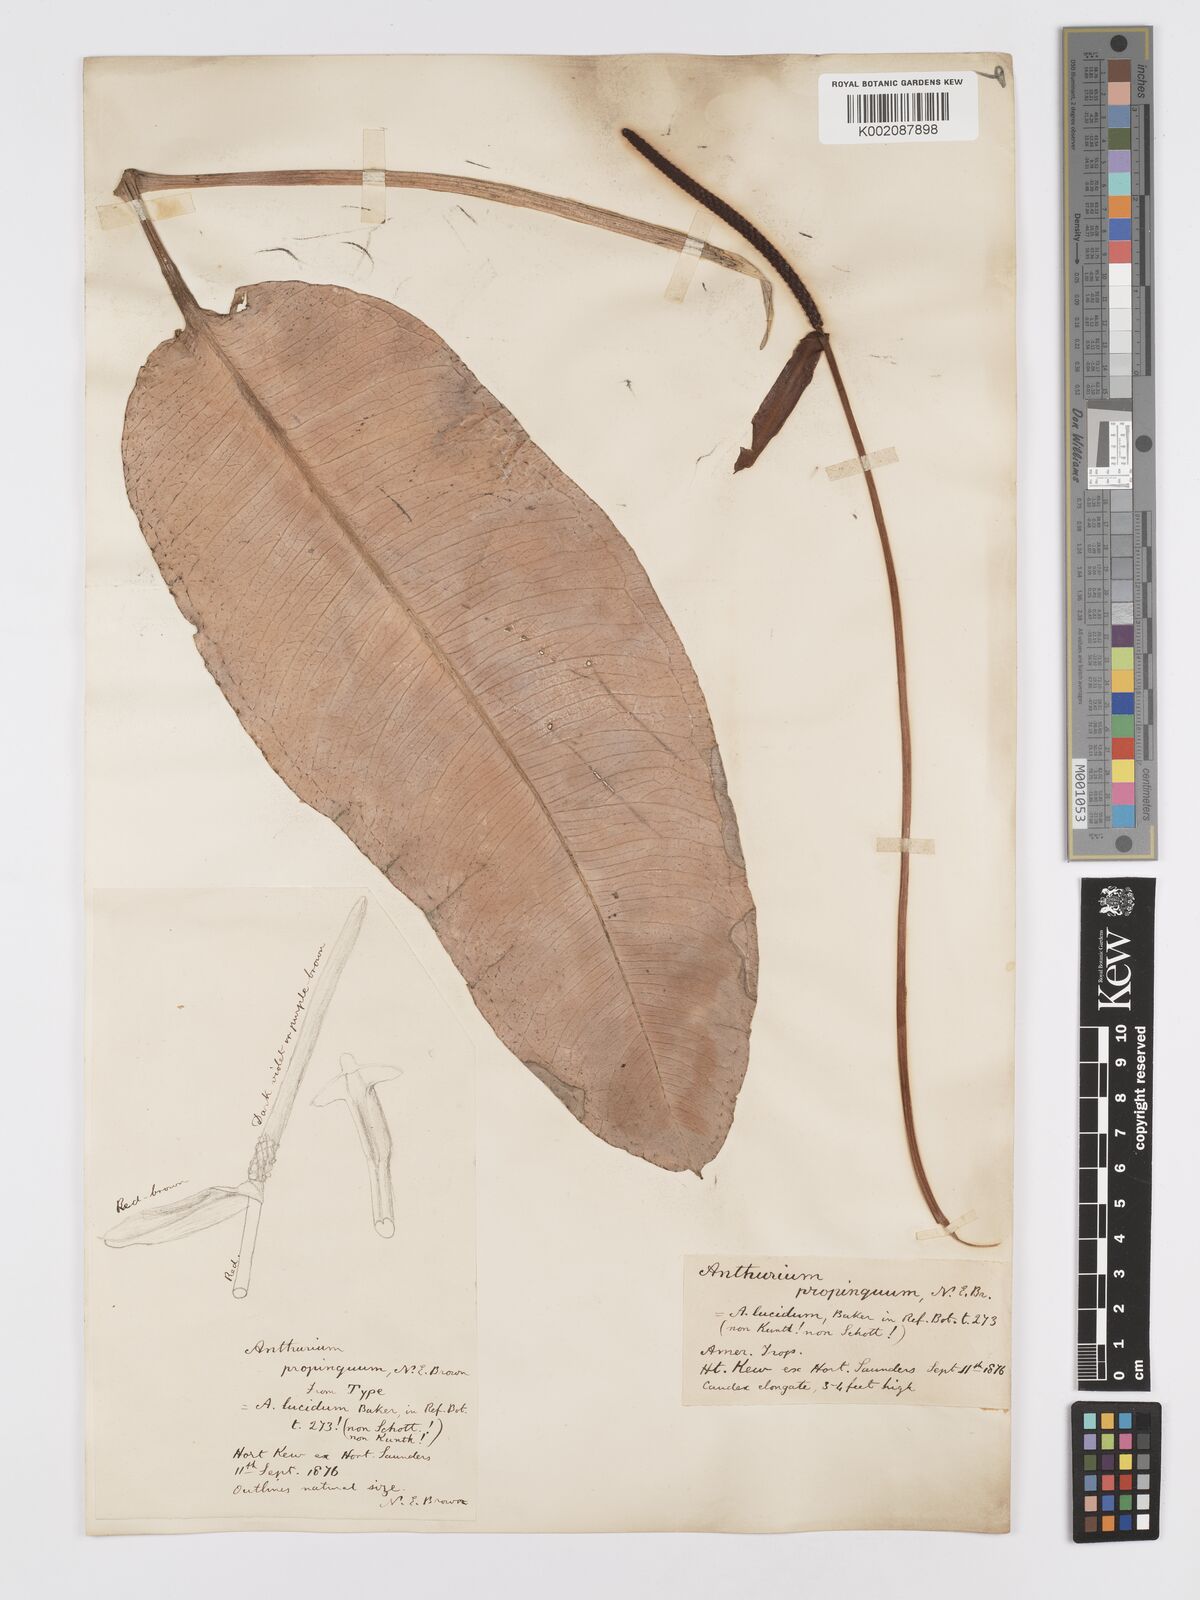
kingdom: Plantae
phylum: Tracheophyta
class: Liliopsida
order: Alismatales
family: Araceae
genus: Anthurium
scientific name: Anthurium cuspidatum
